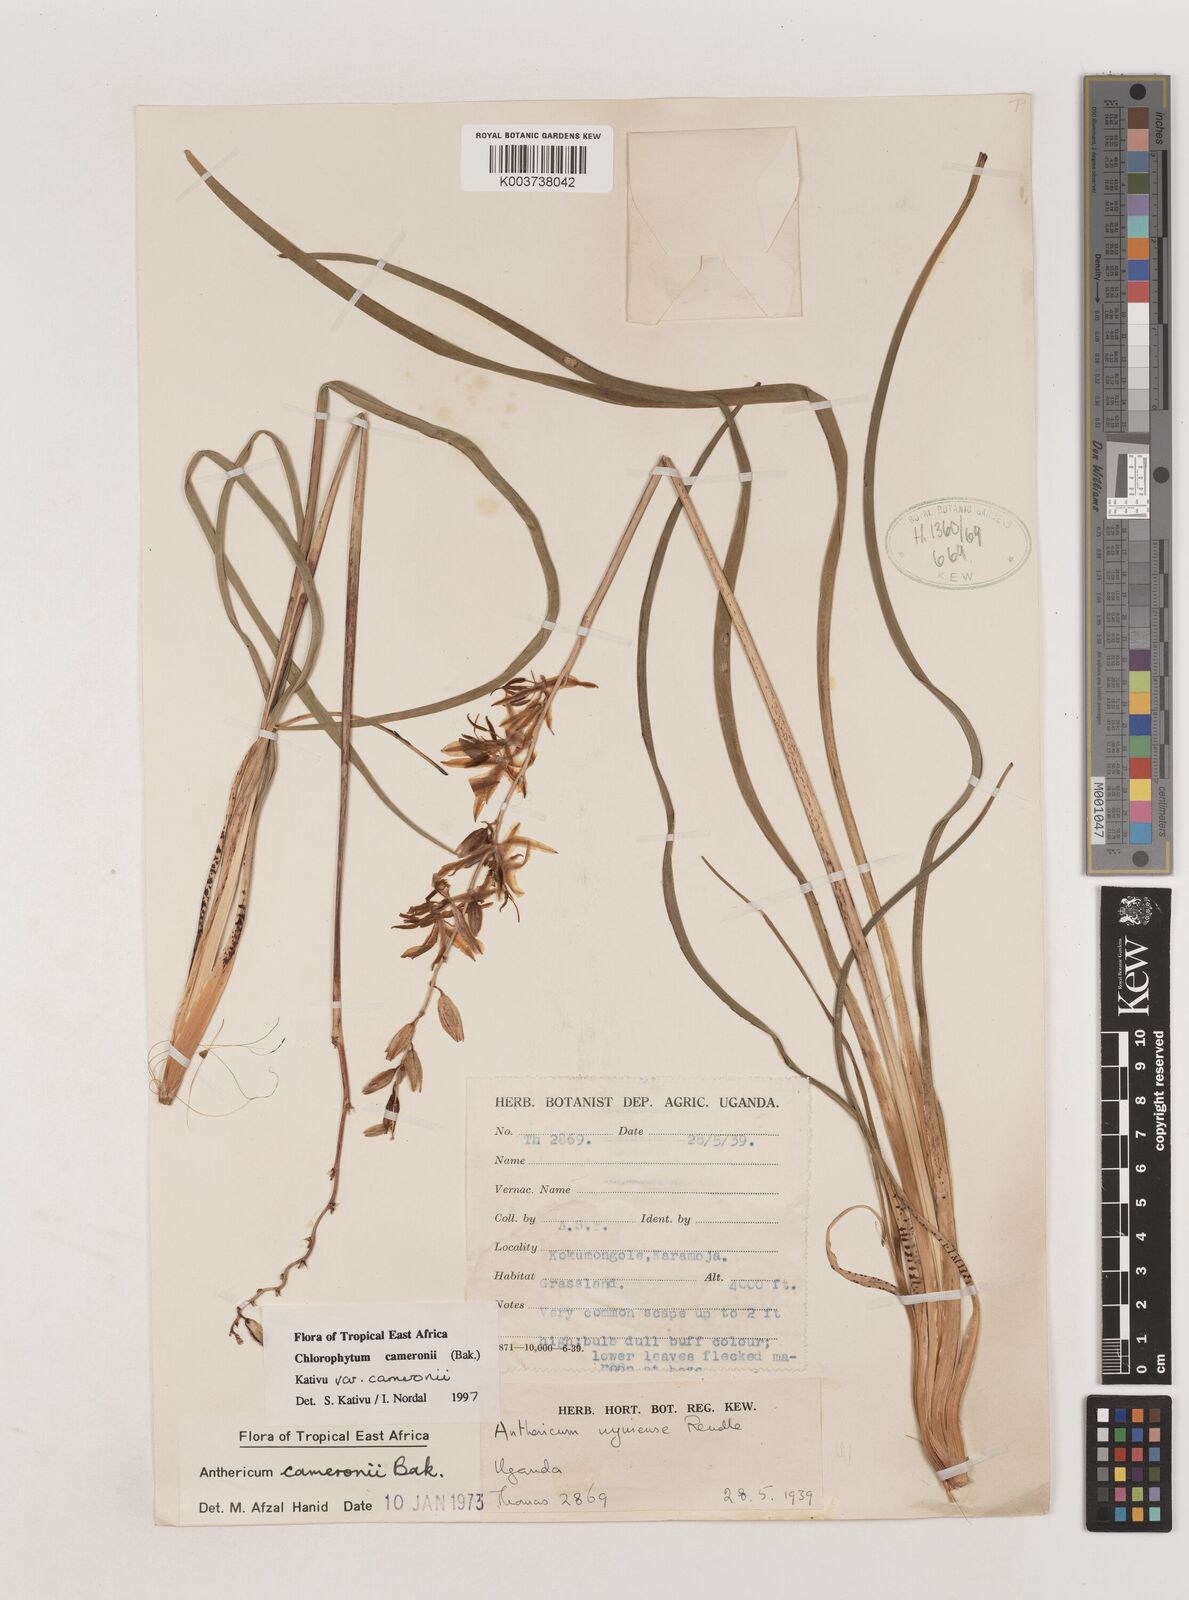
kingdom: Plantae
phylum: Tracheophyta
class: Liliopsida
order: Asparagales
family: Asparagaceae
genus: Chlorophytum
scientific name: Chlorophytum cameronii
